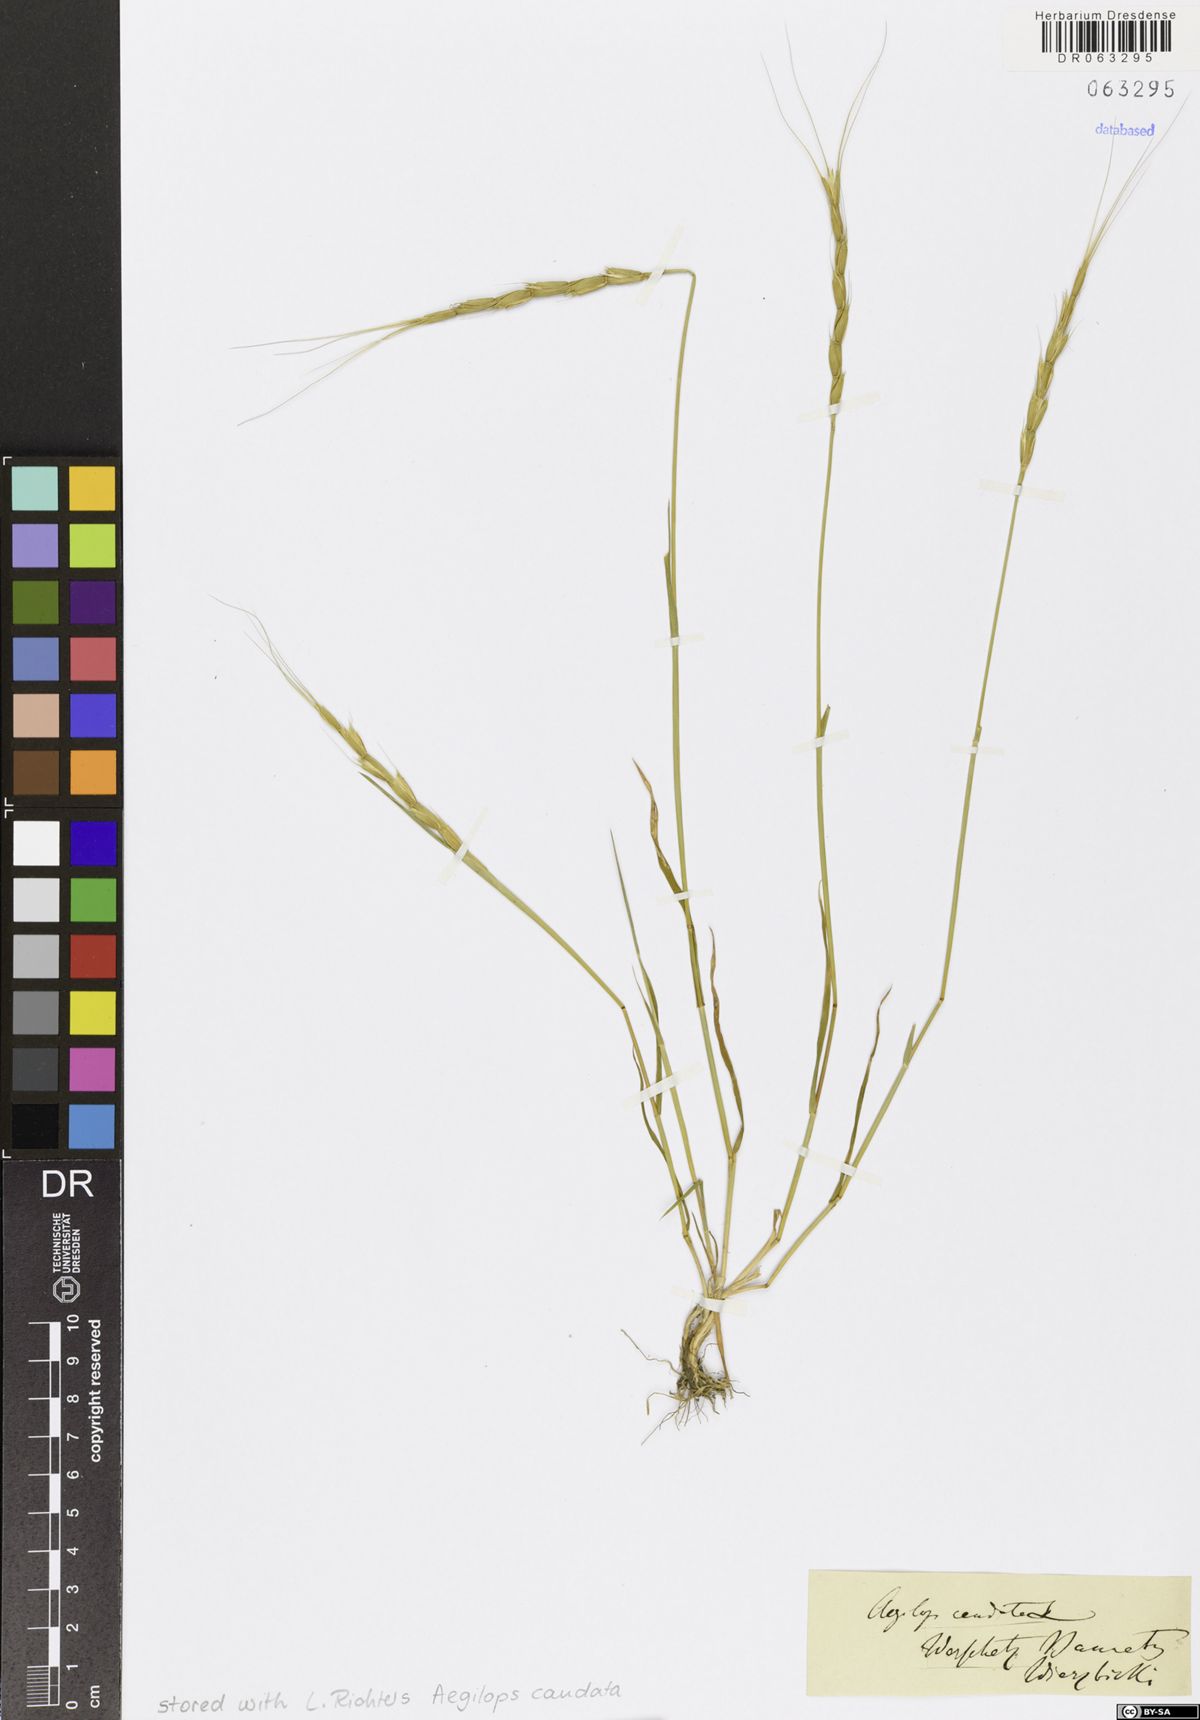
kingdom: Plantae
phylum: Tracheophyta
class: Liliopsida
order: Poales
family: Poaceae
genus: Aegilops
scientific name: Aegilops caudata
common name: Cretan hard-grass
